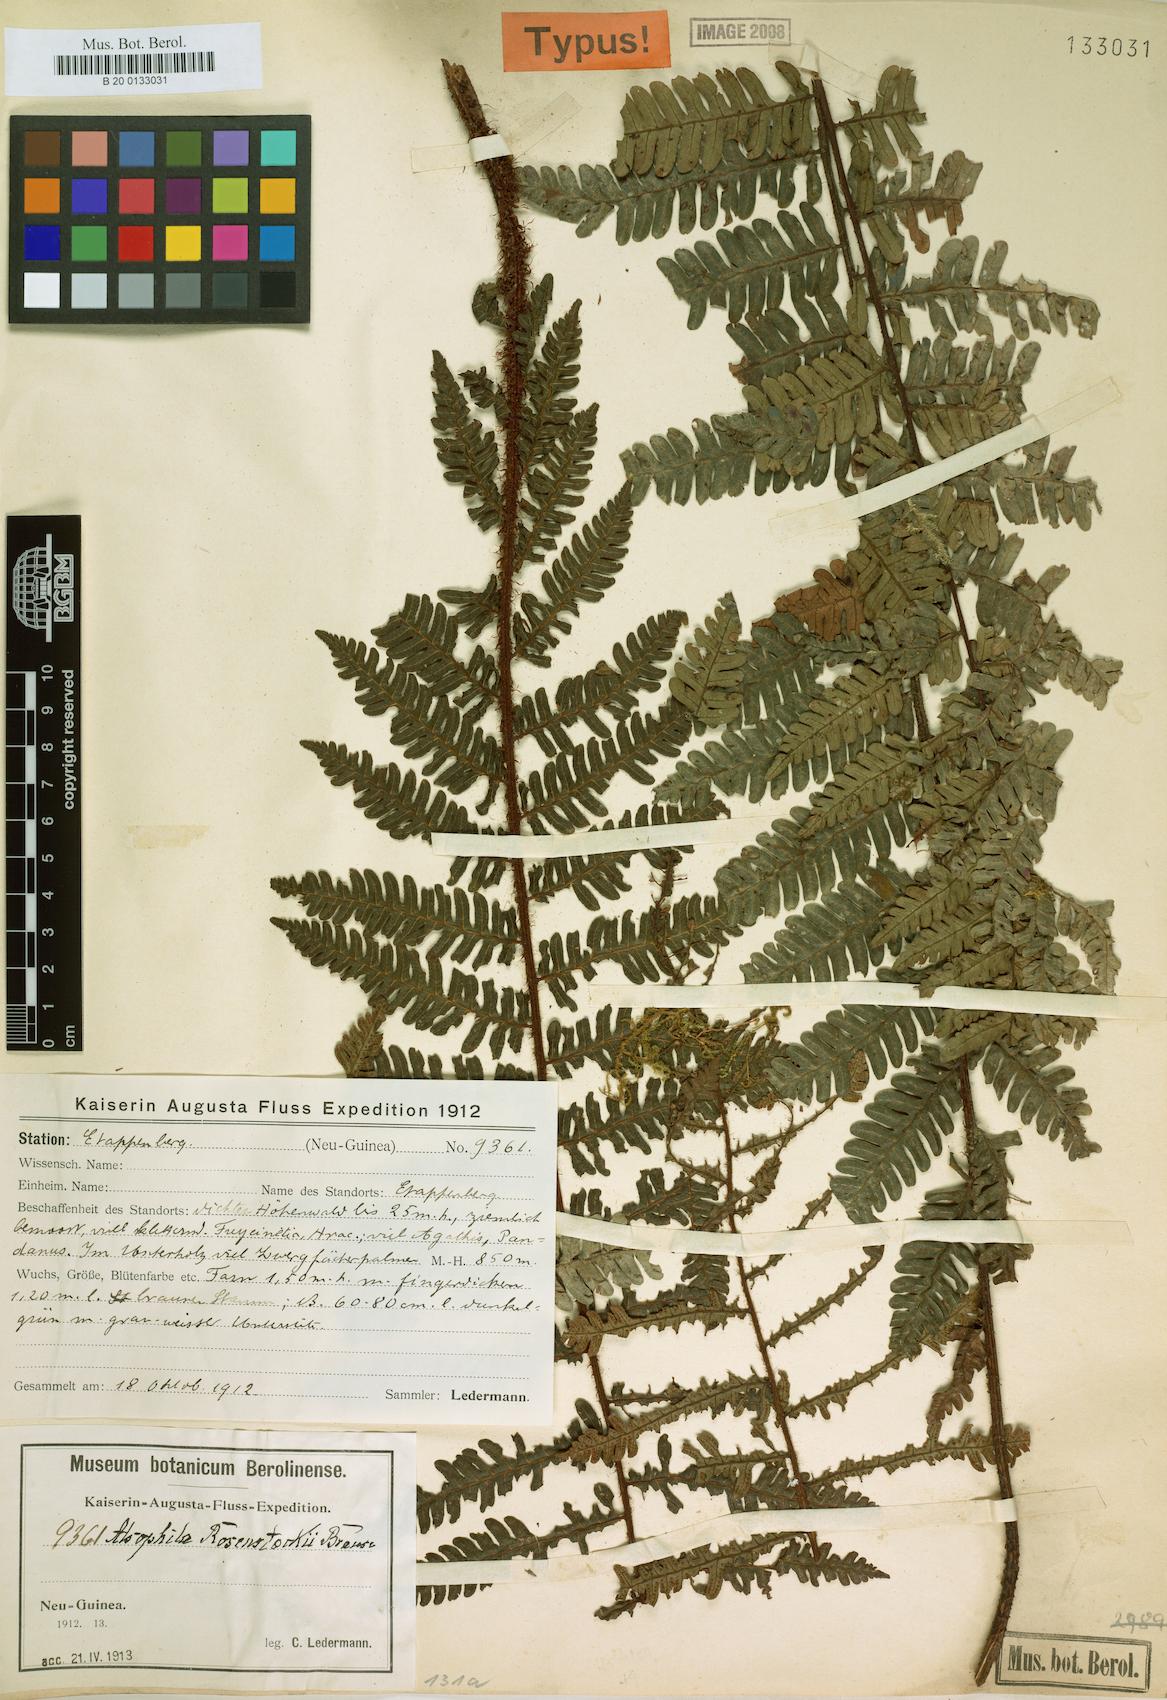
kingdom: Plantae
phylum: Tracheophyta
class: Polypodiopsida
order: Cyatheales
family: Cyatheaceae
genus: Alsophila
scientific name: Alsophila rosenstockii
